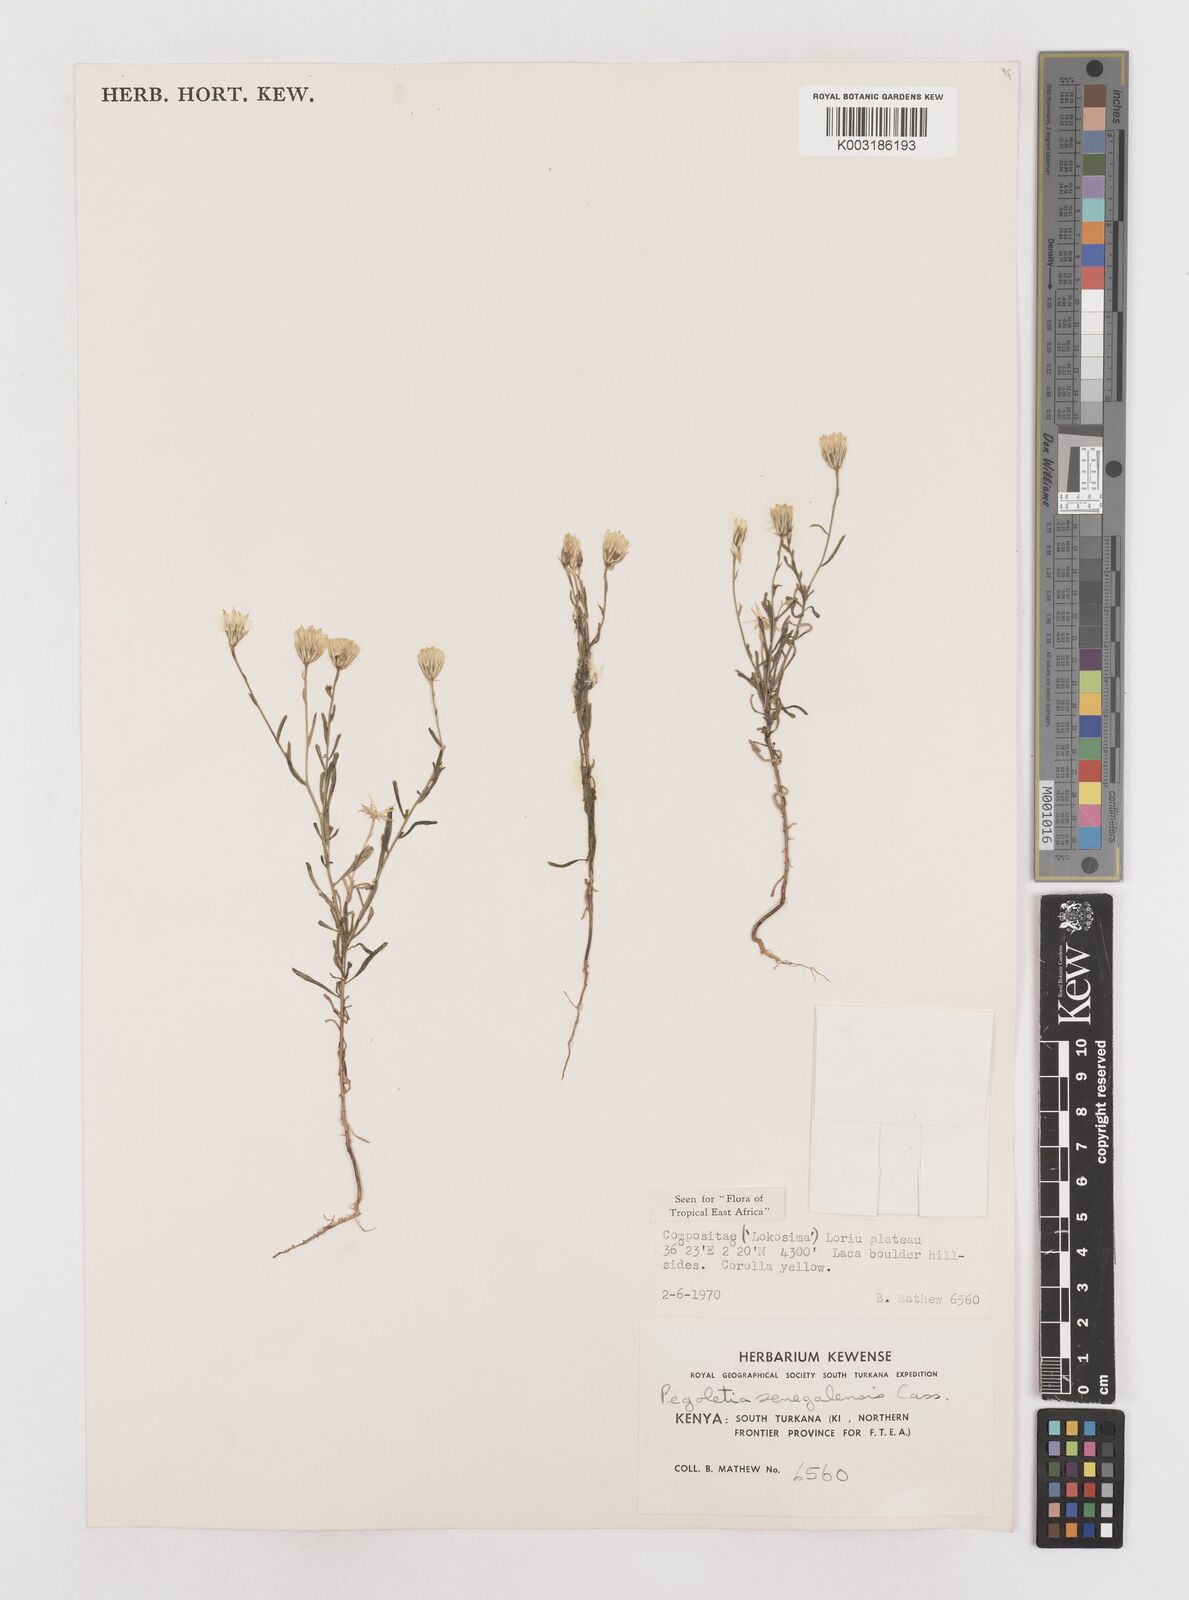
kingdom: Plantae
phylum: Tracheophyta
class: Magnoliopsida
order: Asterales
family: Asteraceae
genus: Pegolettia
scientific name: Pegolettia senegalensis
